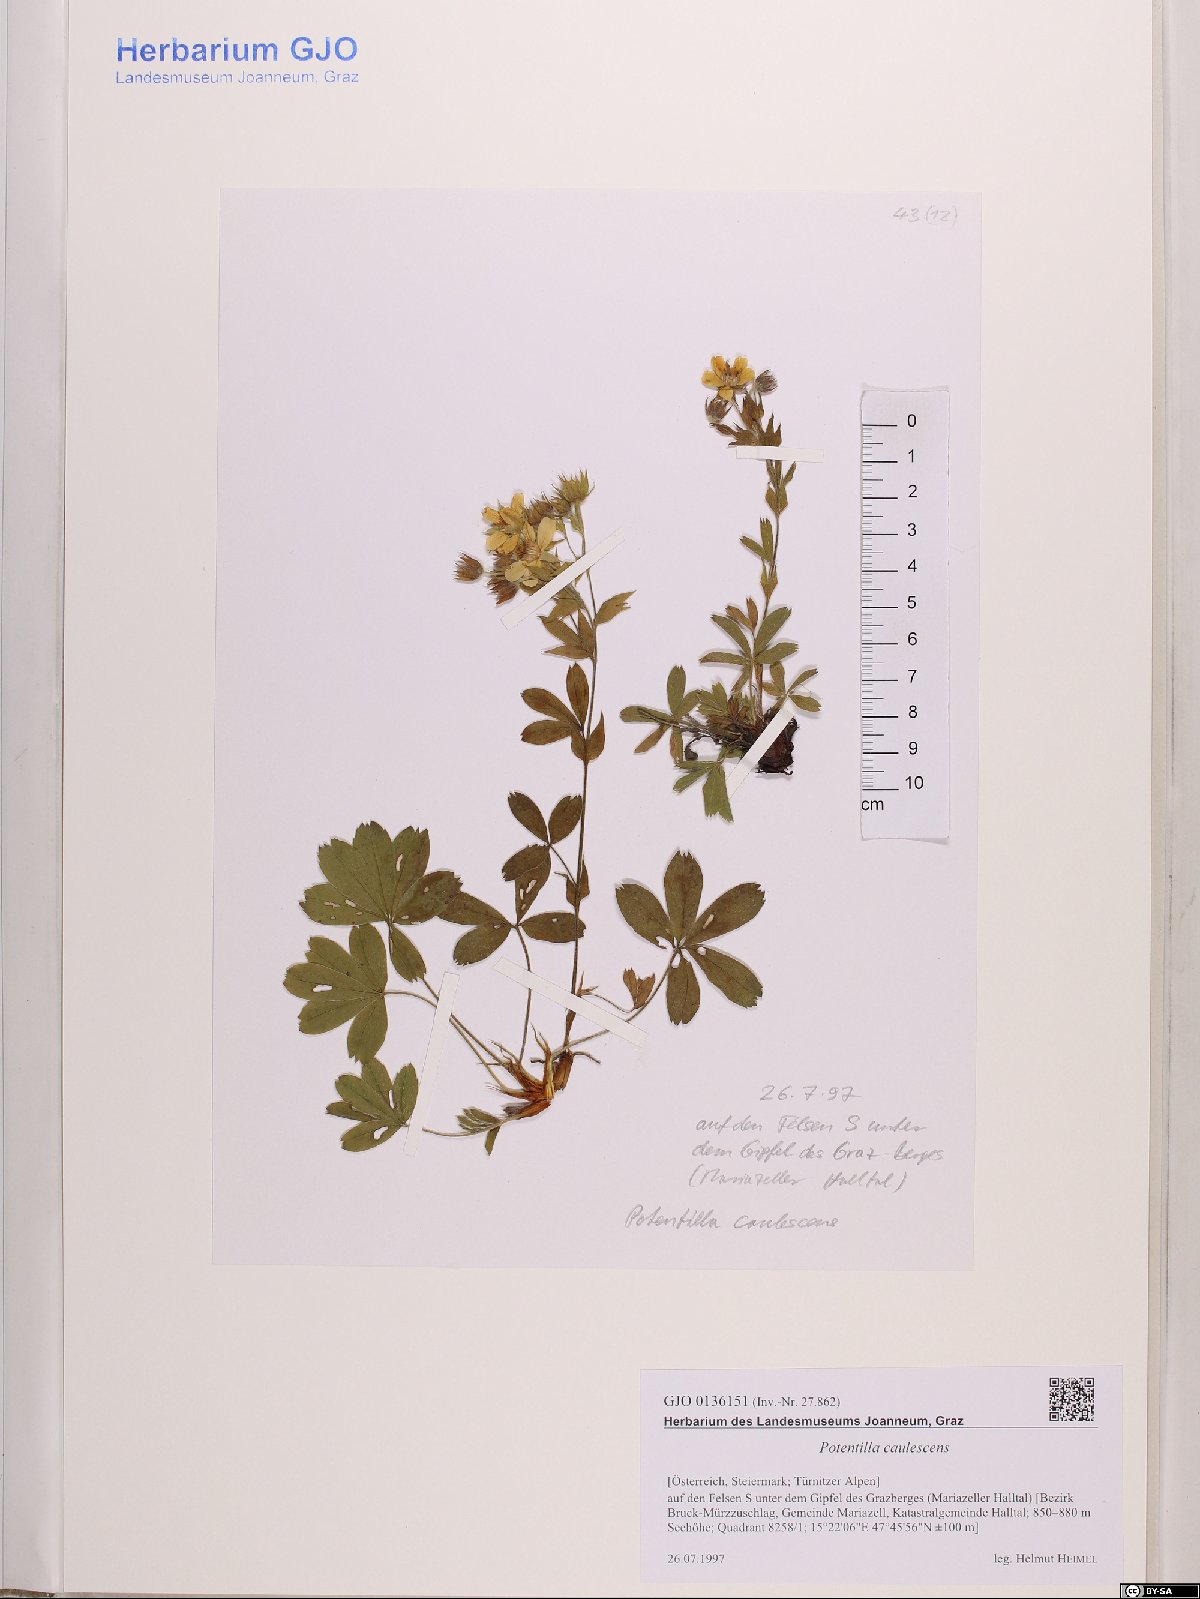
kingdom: Plantae
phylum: Tracheophyta
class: Magnoliopsida
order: Rosales
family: Rosaceae
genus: Potentilla
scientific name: Potentilla caulescens
